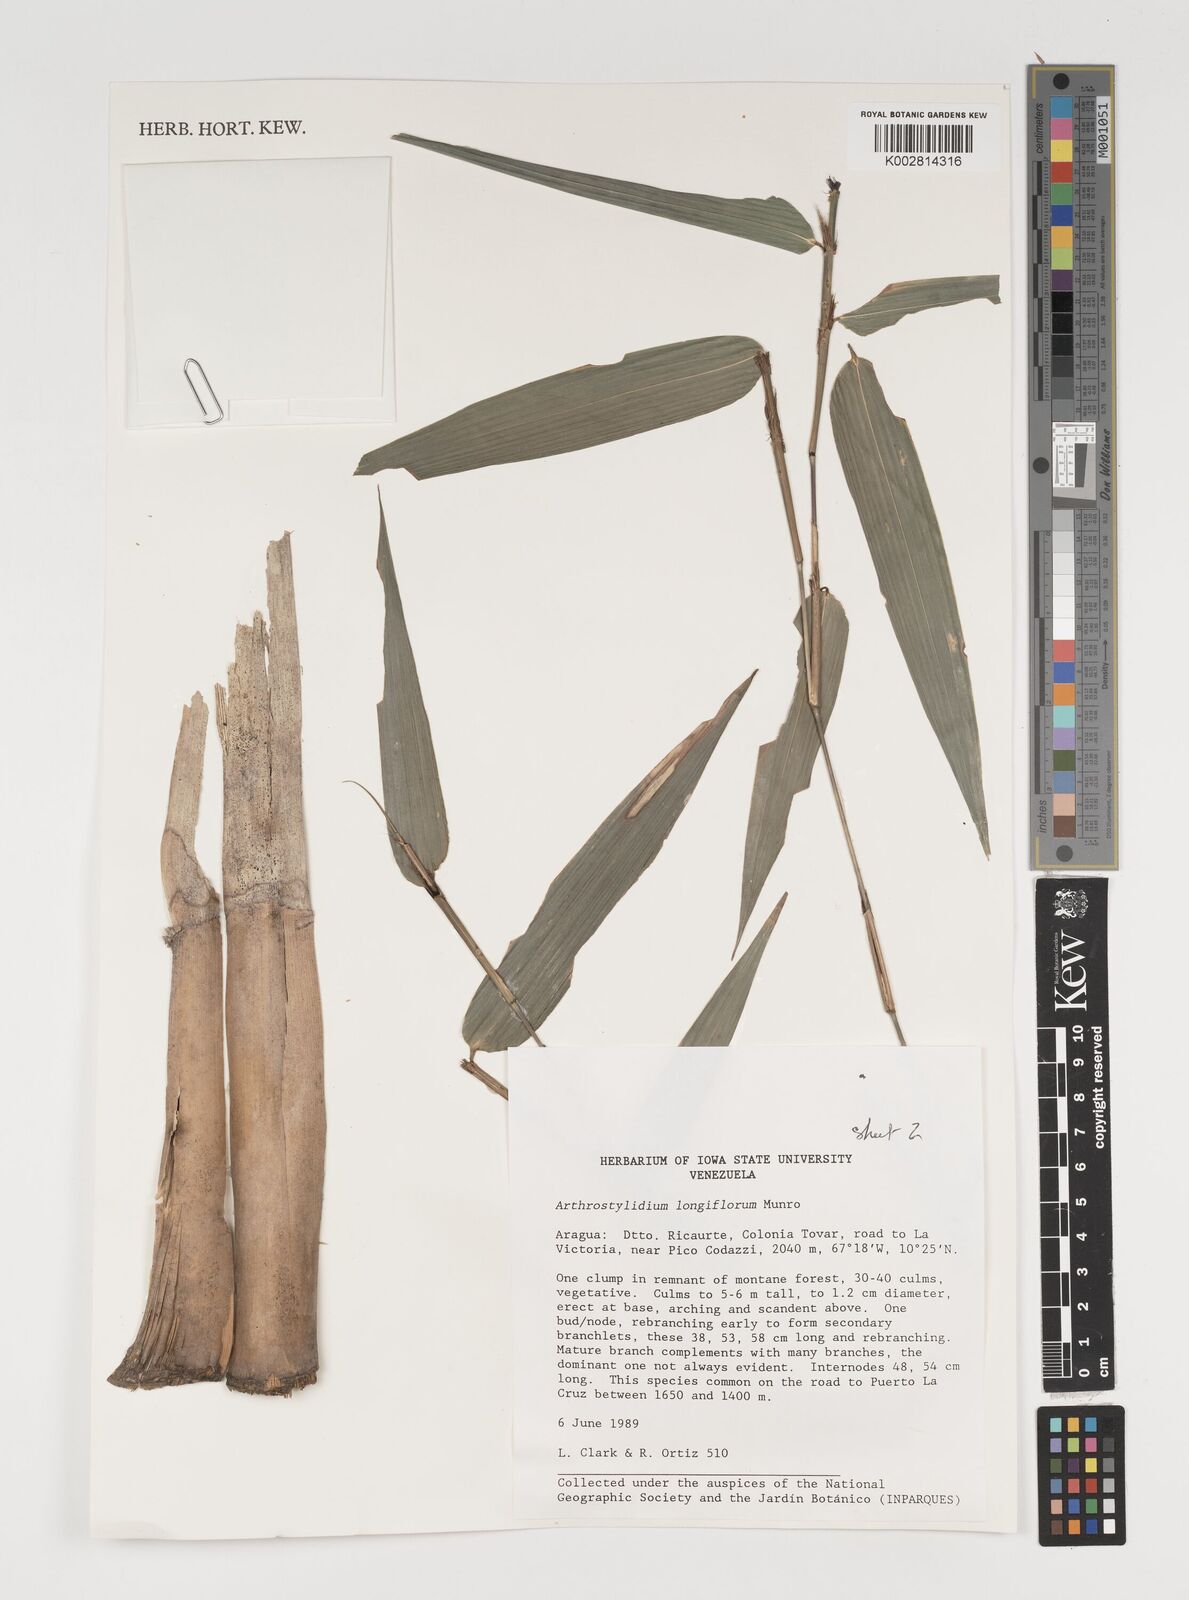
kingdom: Plantae
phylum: Tracheophyta
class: Liliopsida
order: Poales
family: Poaceae
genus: Arthrostylidium
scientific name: Arthrostylidium longiflorum
